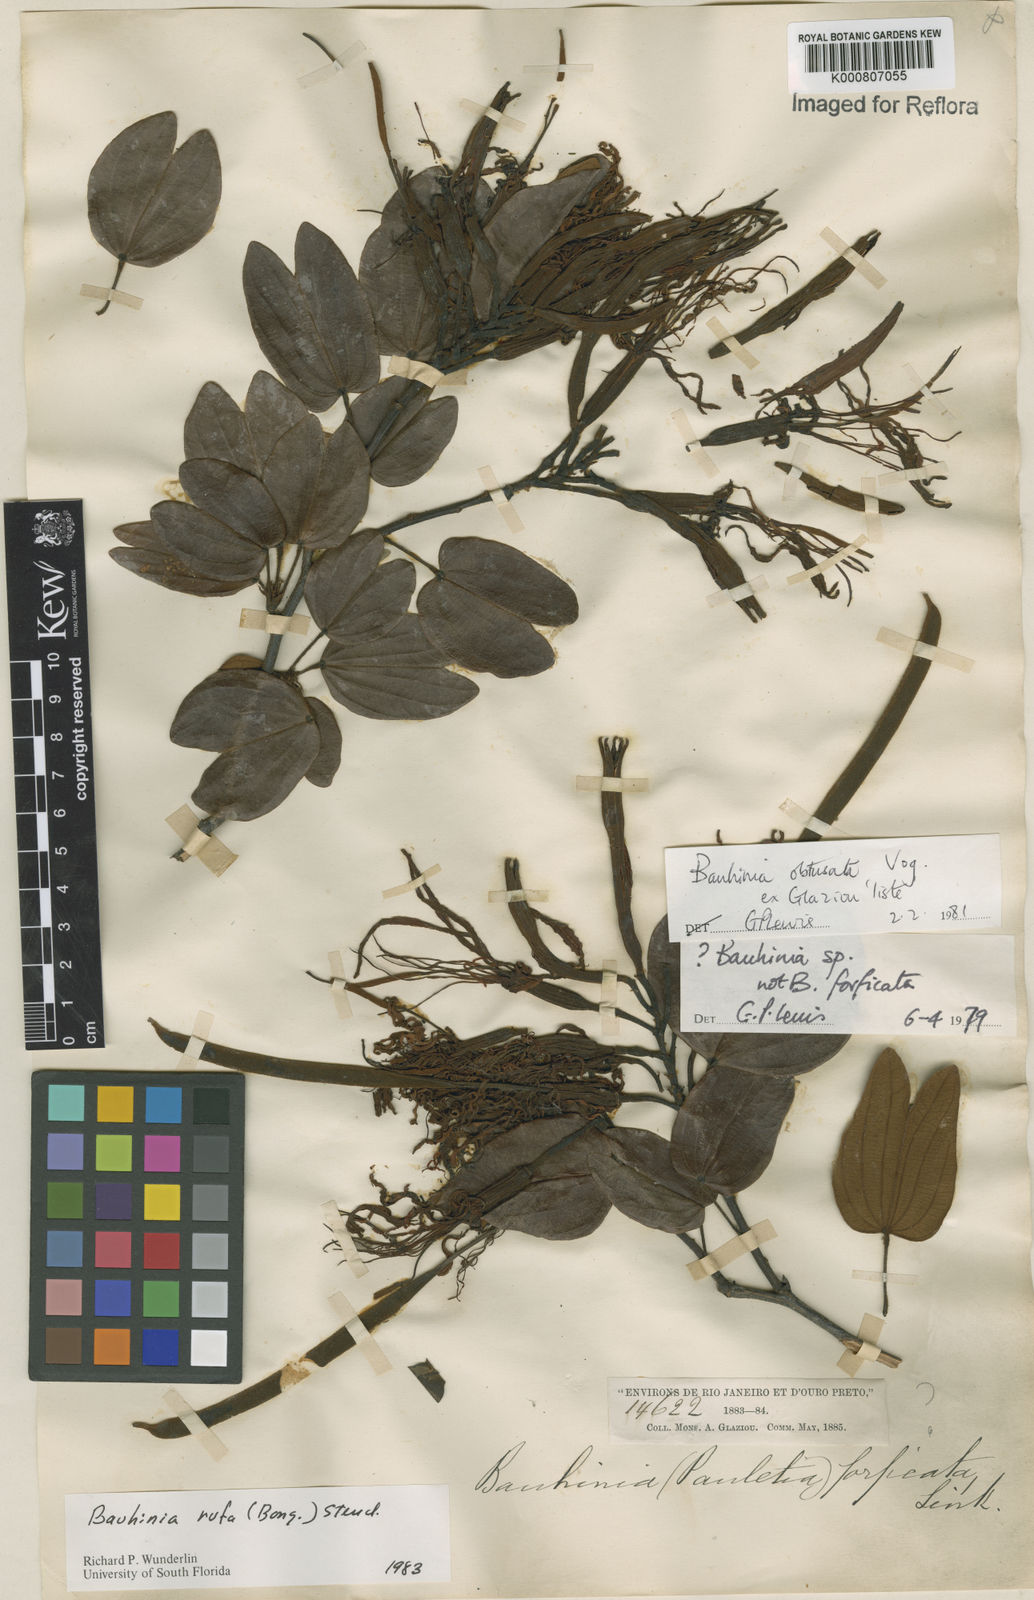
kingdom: Plantae
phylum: Tracheophyta
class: Magnoliopsida
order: Fabales
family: Fabaceae
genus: Bauhinia
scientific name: Bauhinia rufa
